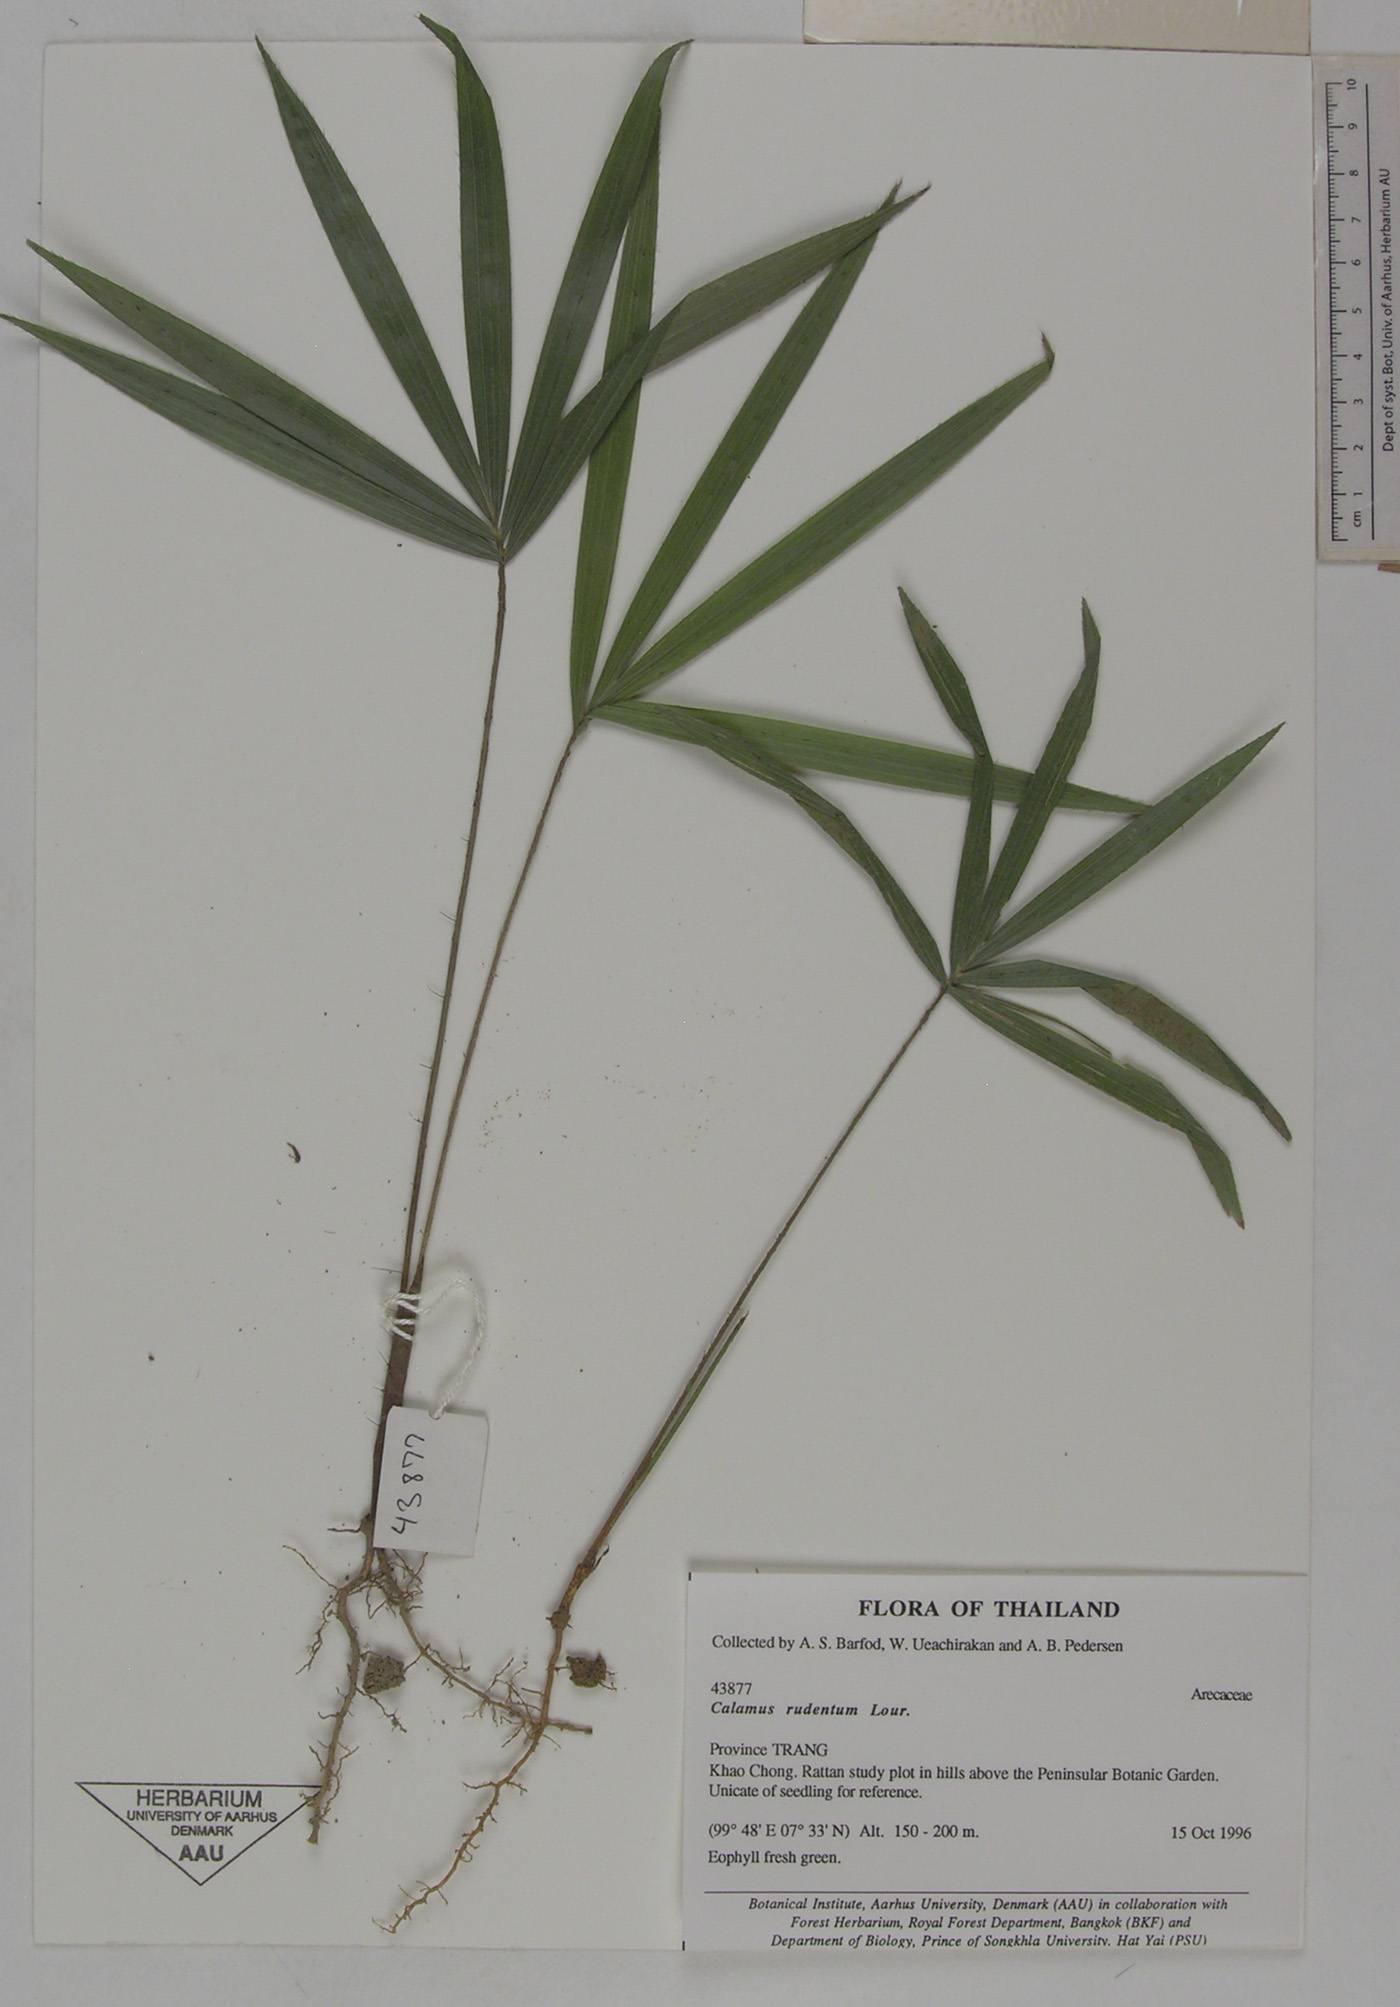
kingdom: Plantae
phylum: Tracheophyta
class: Liliopsida
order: Arecales
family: Arecaceae
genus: Calamus
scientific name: Calamus rudentum
